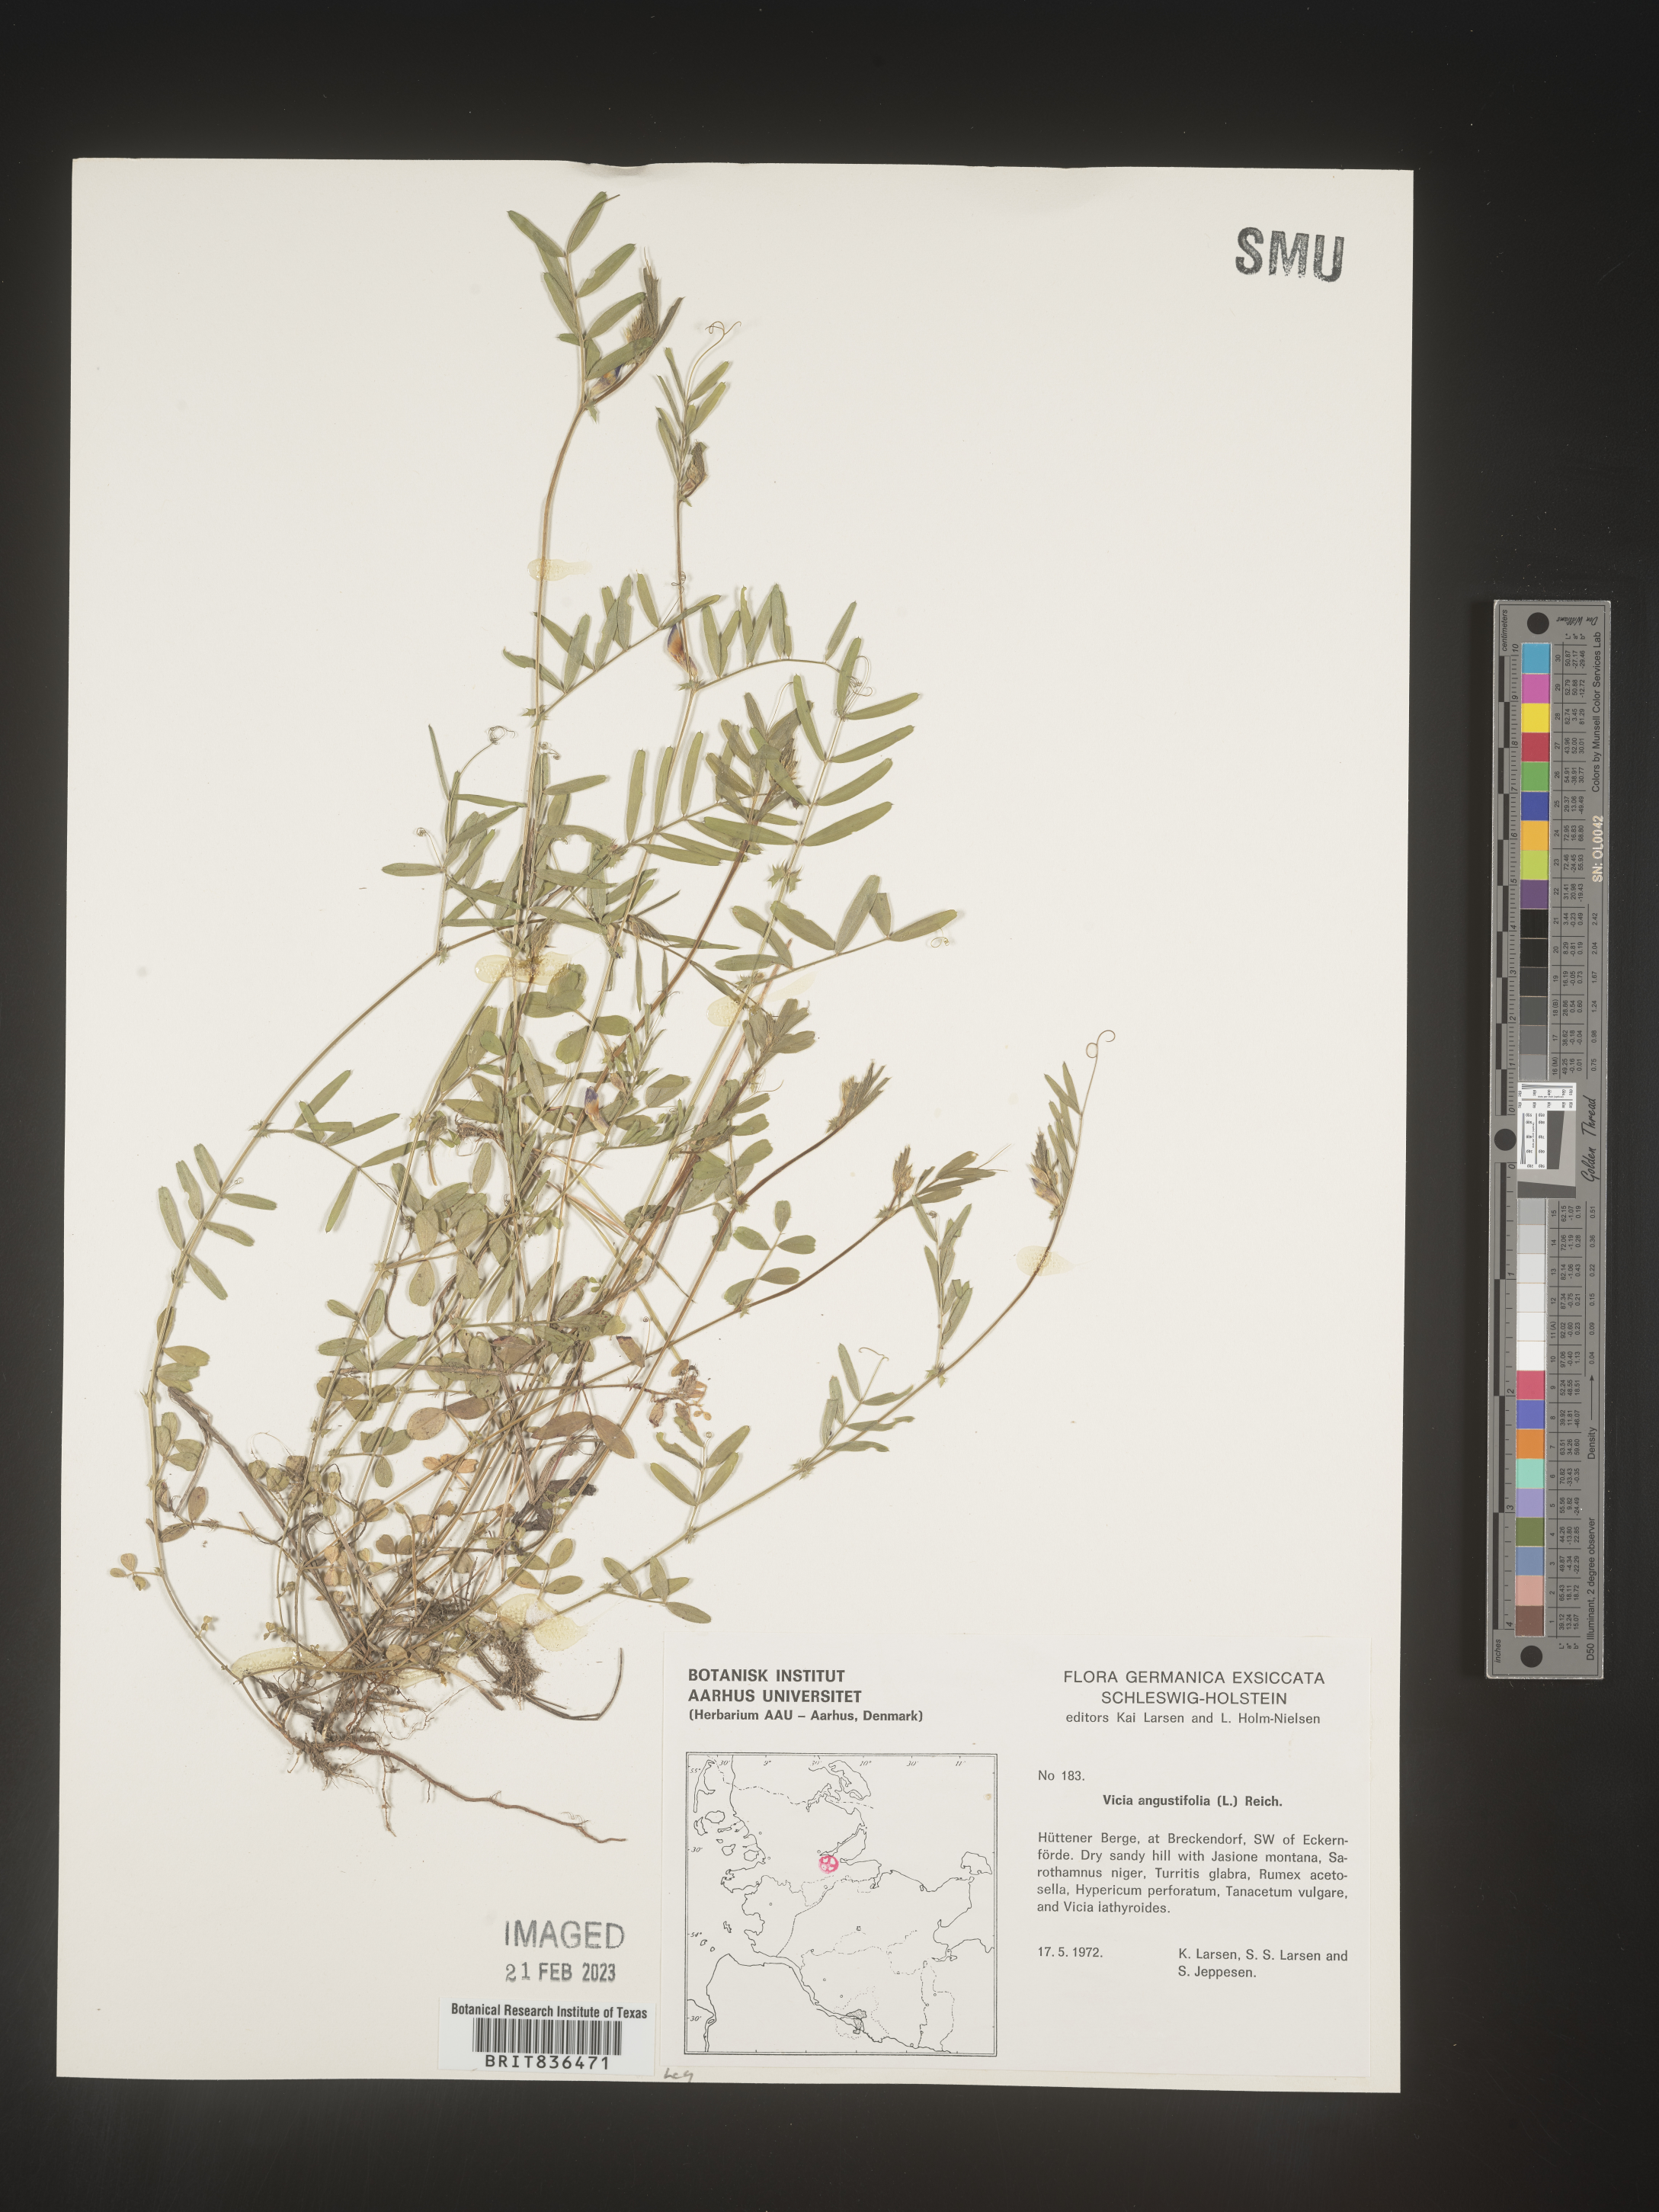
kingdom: Plantae
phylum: Tracheophyta
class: Magnoliopsida
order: Fabales
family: Fabaceae
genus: Vicia
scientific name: Vicia
